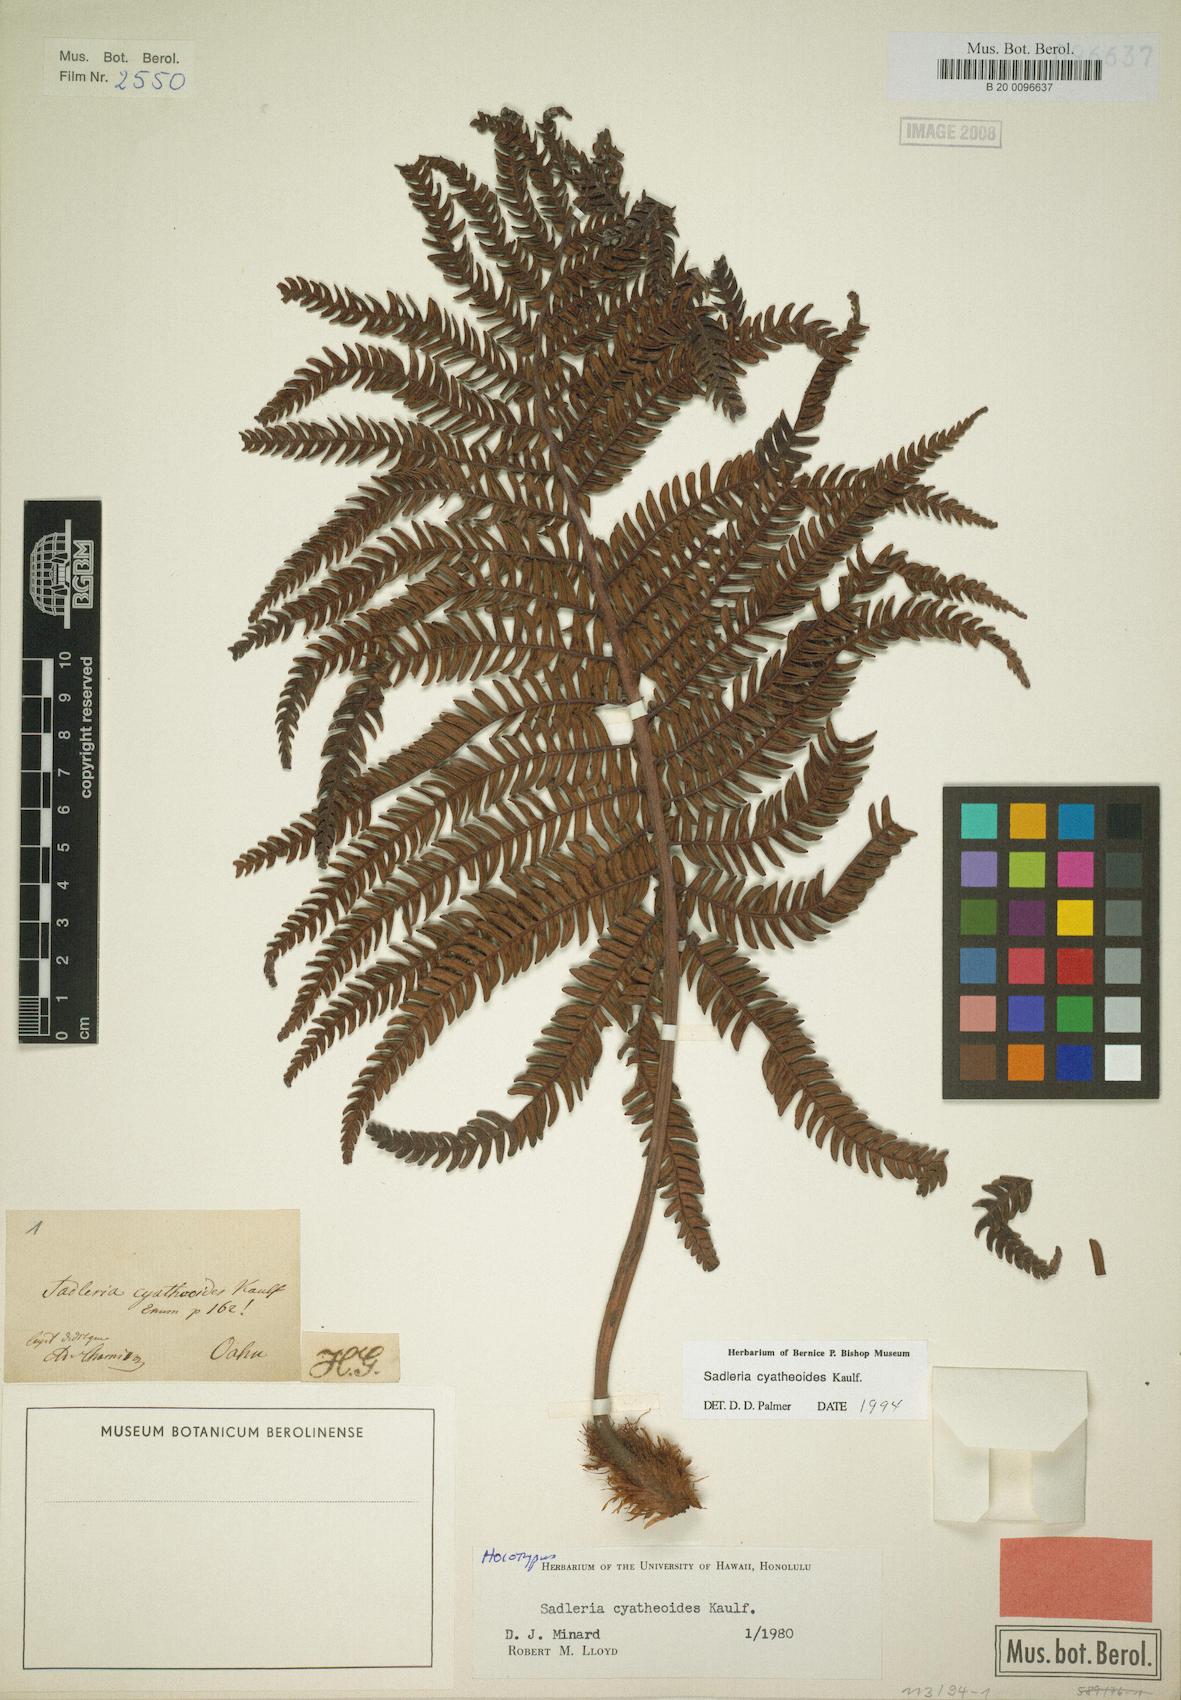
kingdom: Plantae
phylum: Tracheophyta
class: Polypodiopsida
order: Polypodiales
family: Blechnaceae
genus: Sadleria
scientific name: Sadleria cyatheoides
